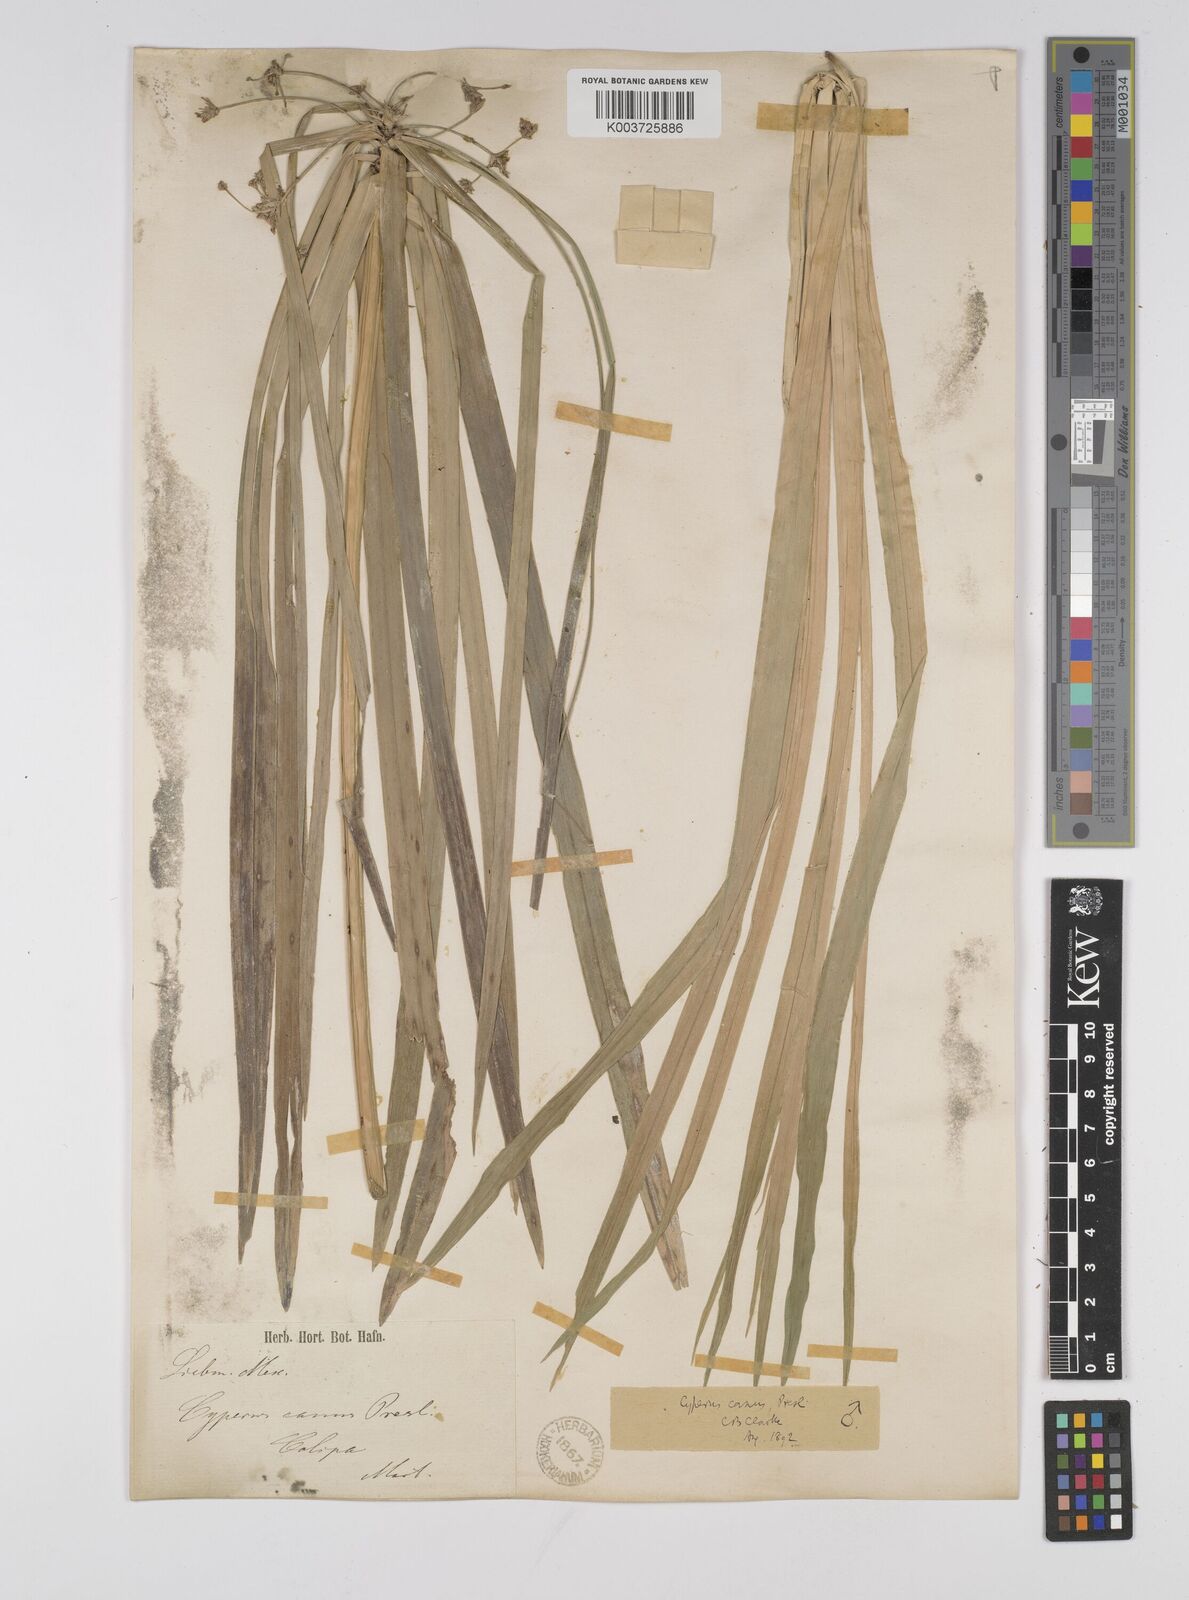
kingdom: Plantae
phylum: Tracheophyta
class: Liliopsida
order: Poales
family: Cyperaceae
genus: Cyperus
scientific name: Cyperus canus
